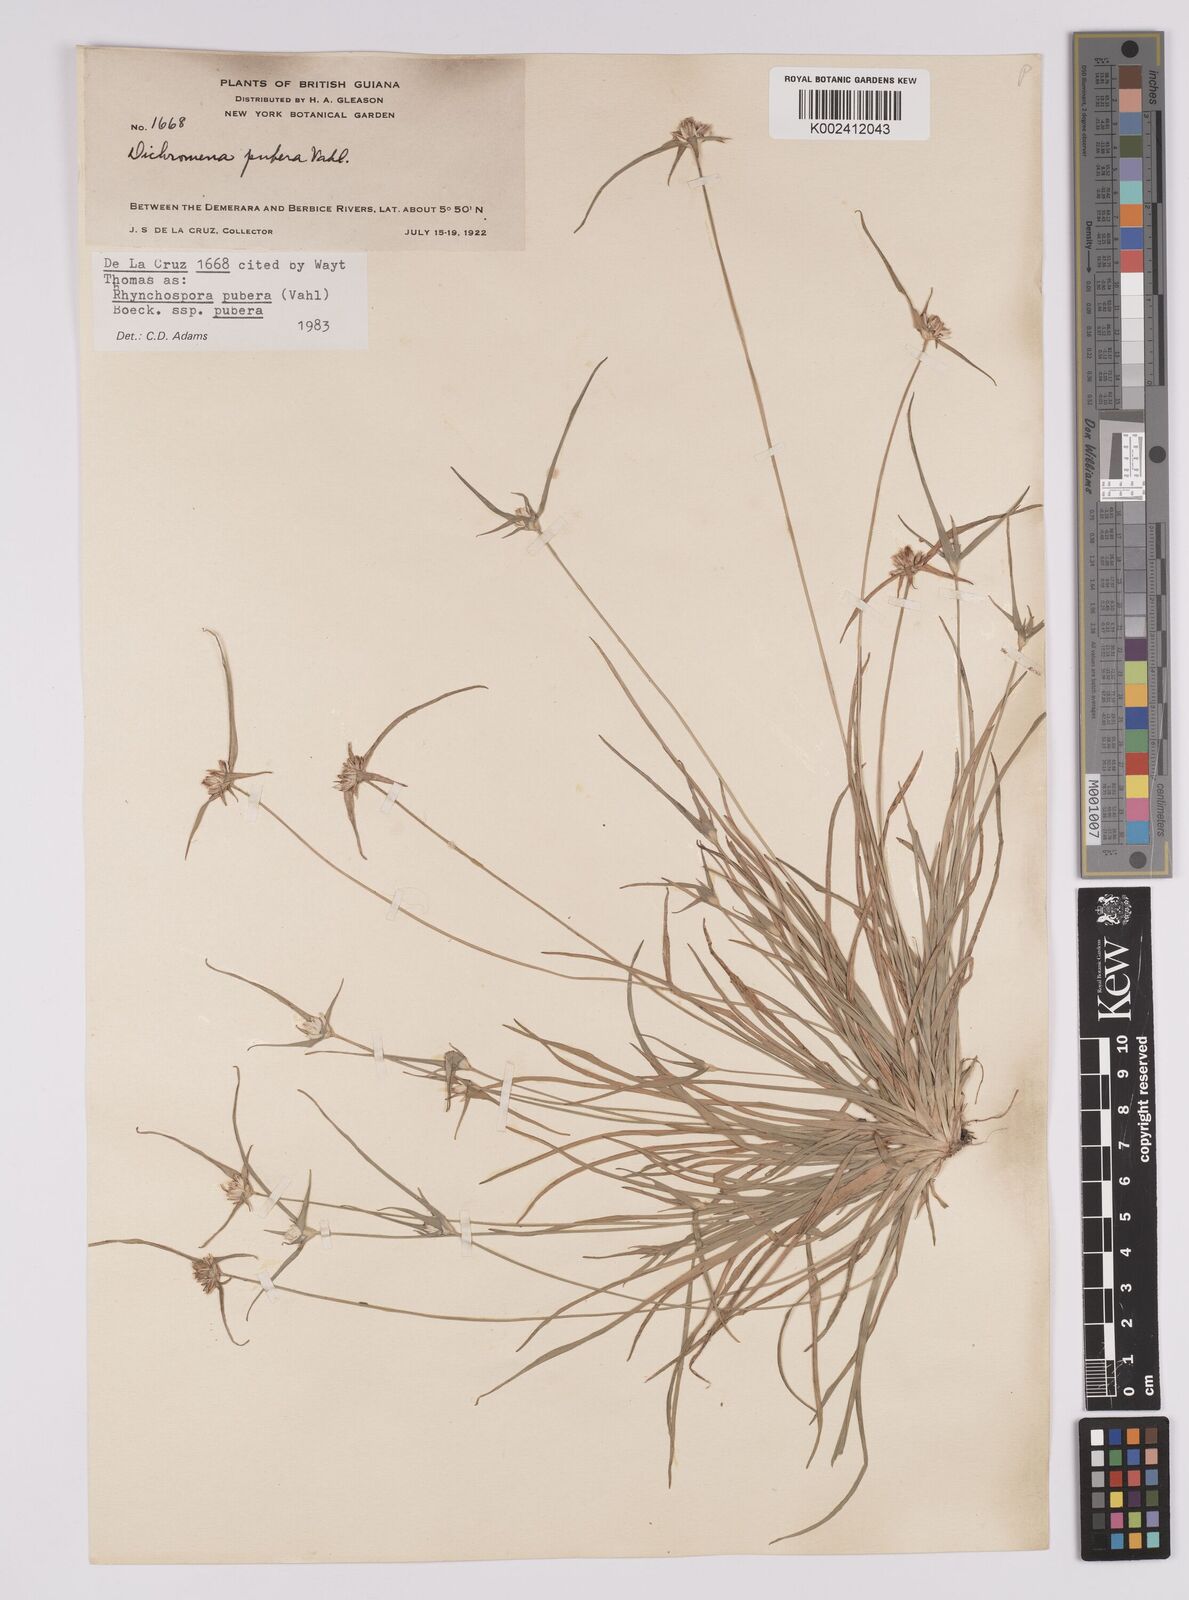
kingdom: Plantae
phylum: Tracheophyta
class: Liliopsida
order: Poales
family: Cyperaceae
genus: Rhynchospora
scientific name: Rhynchospora pubera
